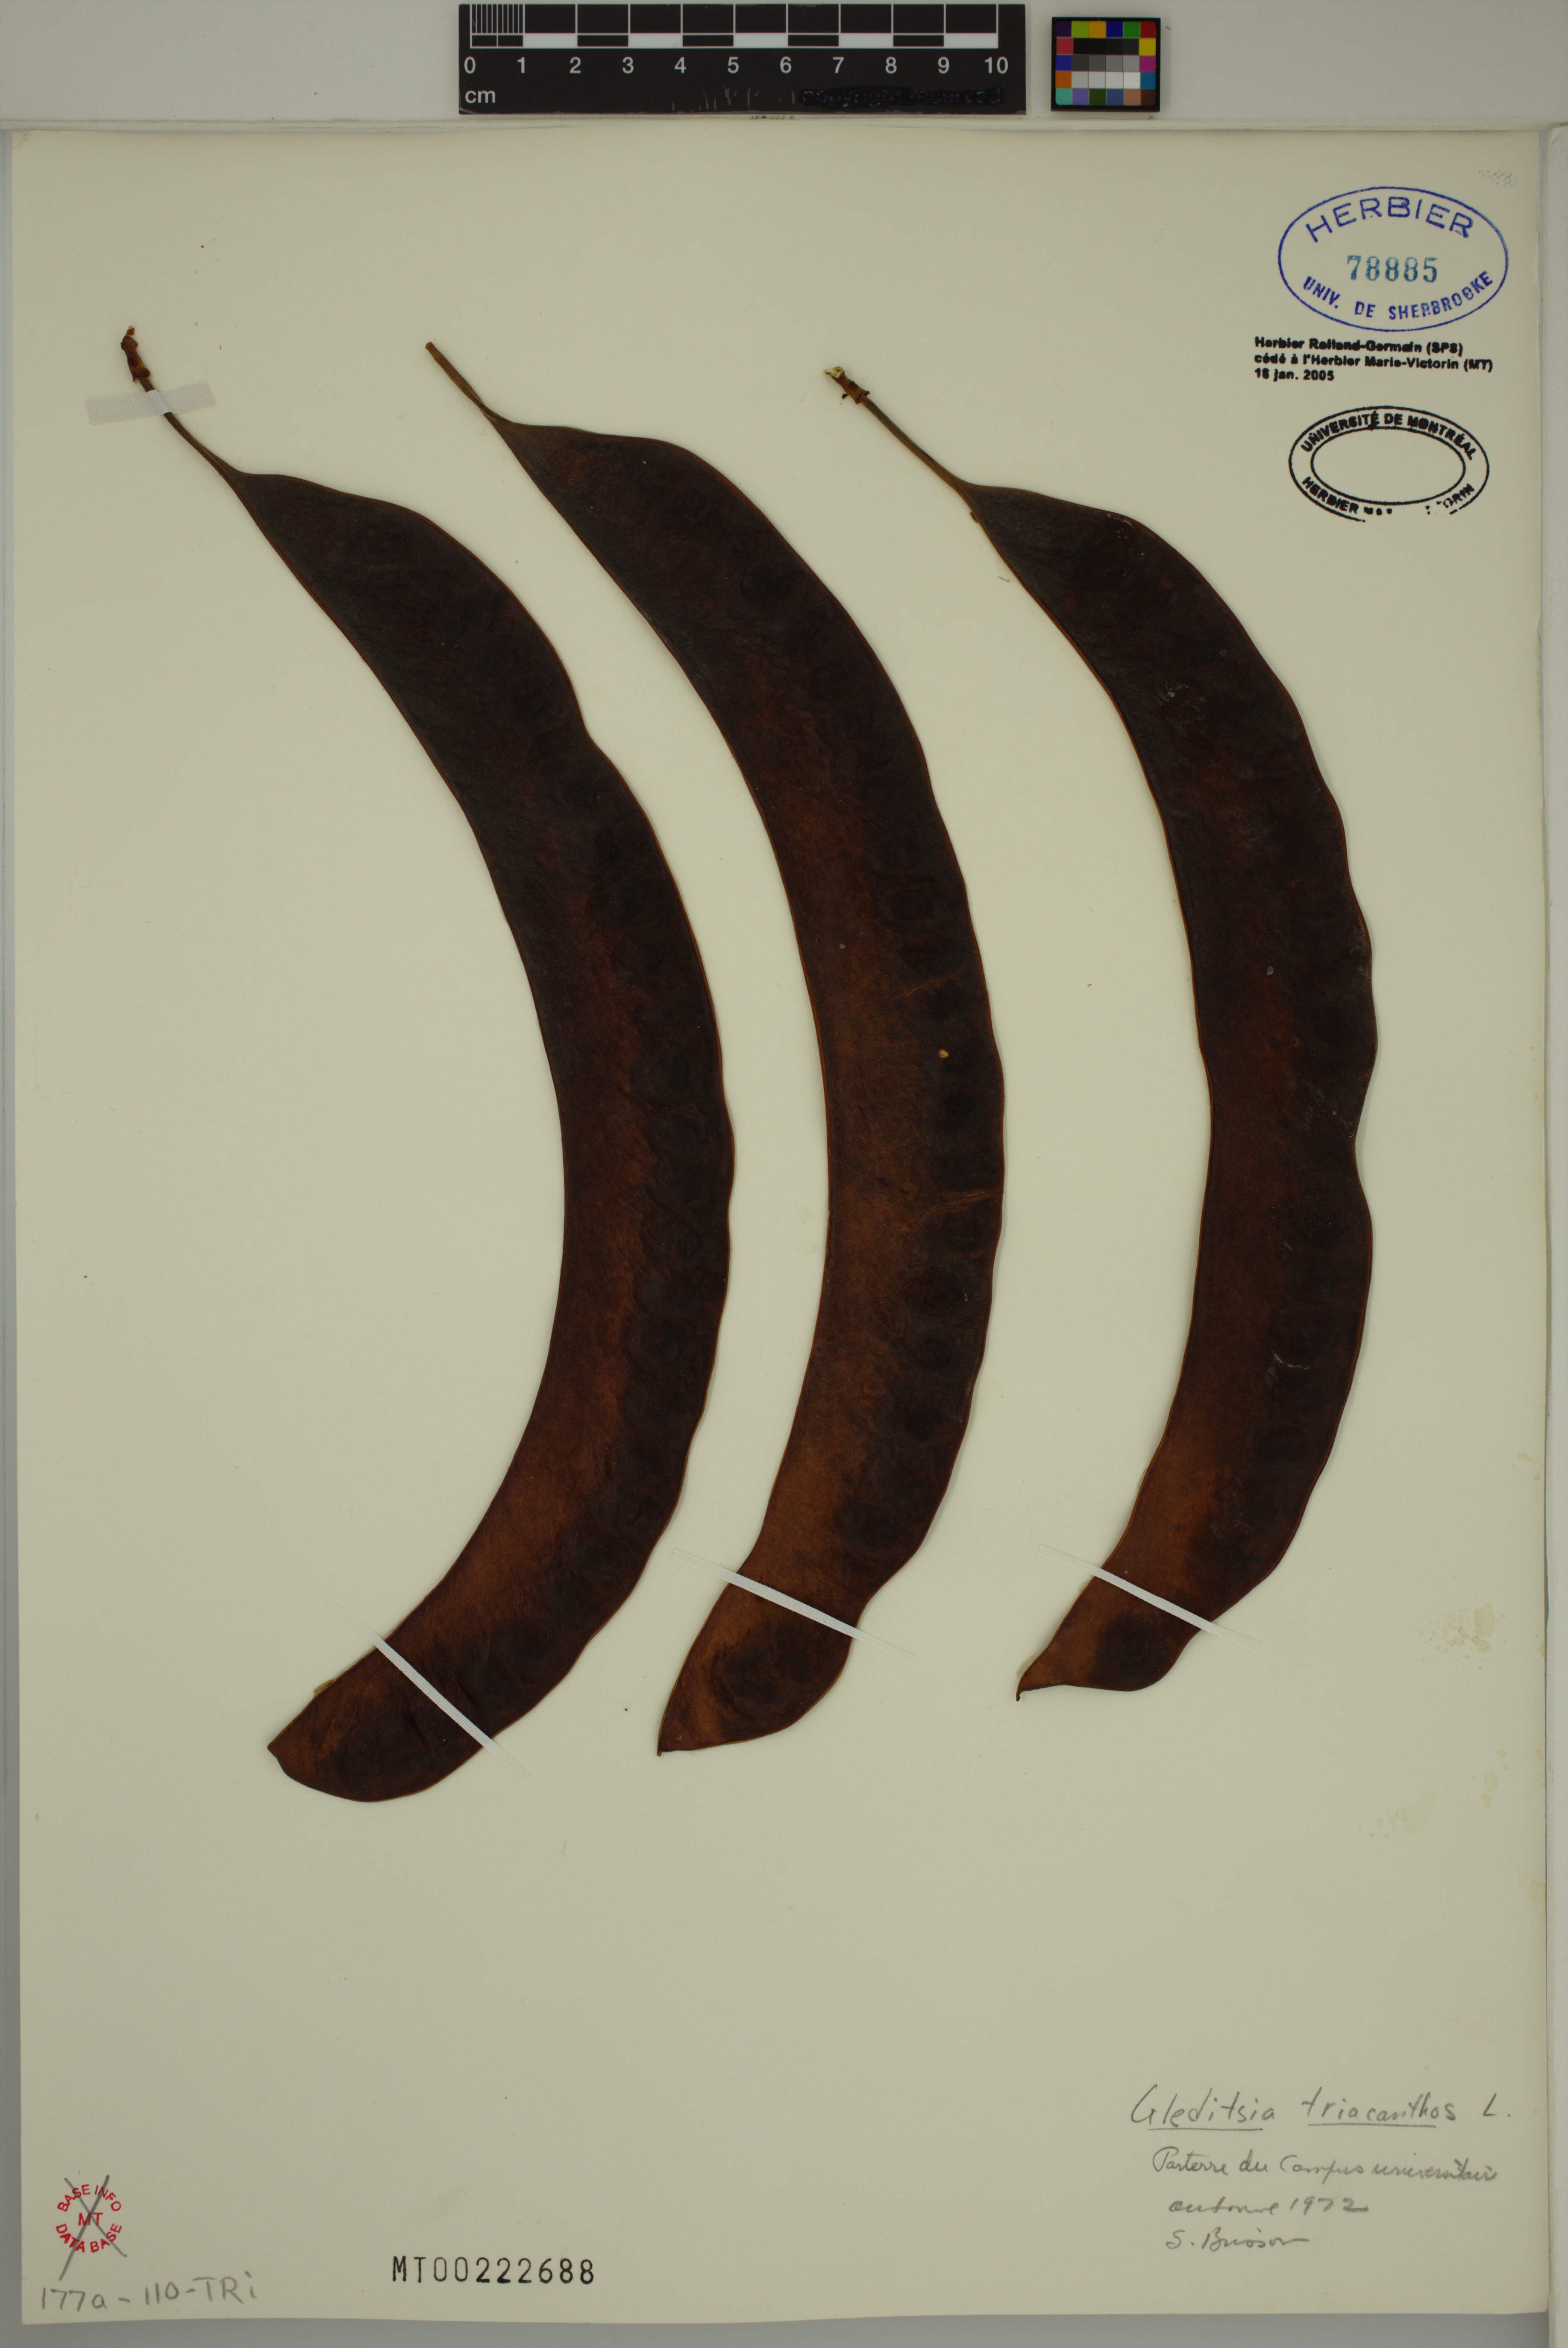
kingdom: Plantae
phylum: Tracheophyta
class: Magnoliopsida
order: Fabales
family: Fabaceae
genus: Gleditsia
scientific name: Gleditsia triacanthos
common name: Common honeylocust
